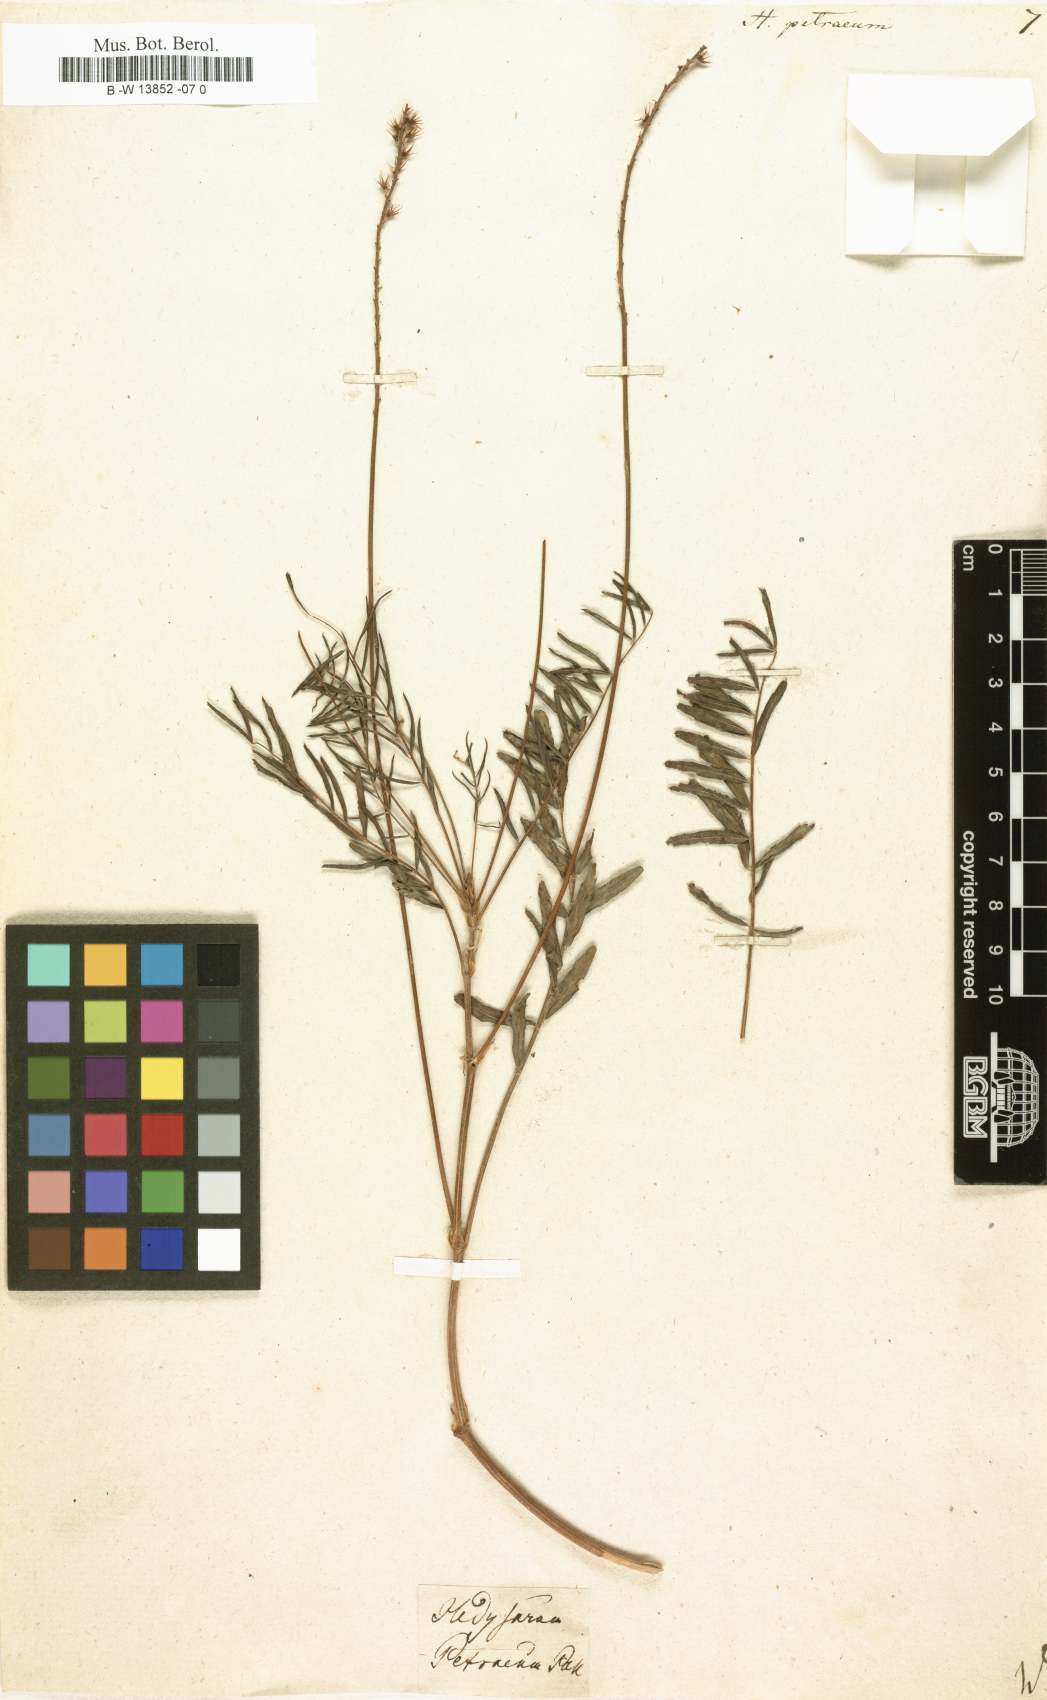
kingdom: Plantae
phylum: Tracheophyta
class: Magnoliopsida
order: Fabales
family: Fabaceae
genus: Onobrychis
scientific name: Onobrychis petraea
